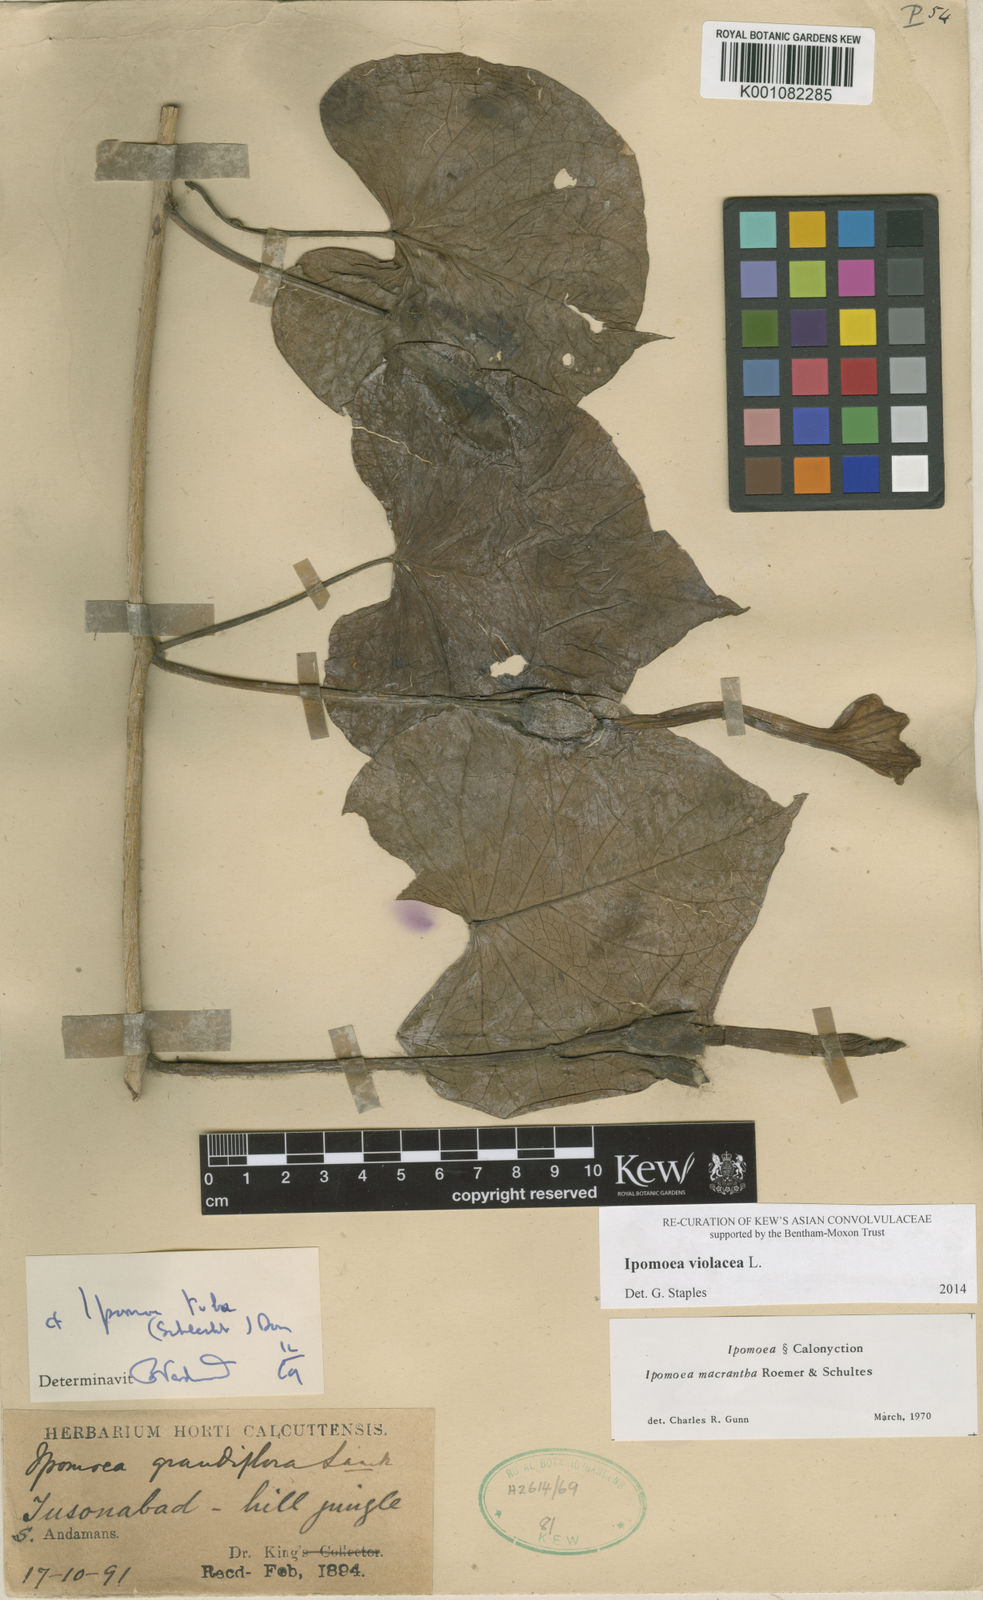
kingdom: Plantae
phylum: Tracheophyta
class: Magnoliopsida
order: Solanales
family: Convolvulaceae
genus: Ipomoea
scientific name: Ipomoea violacea
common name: Beach moonflower
